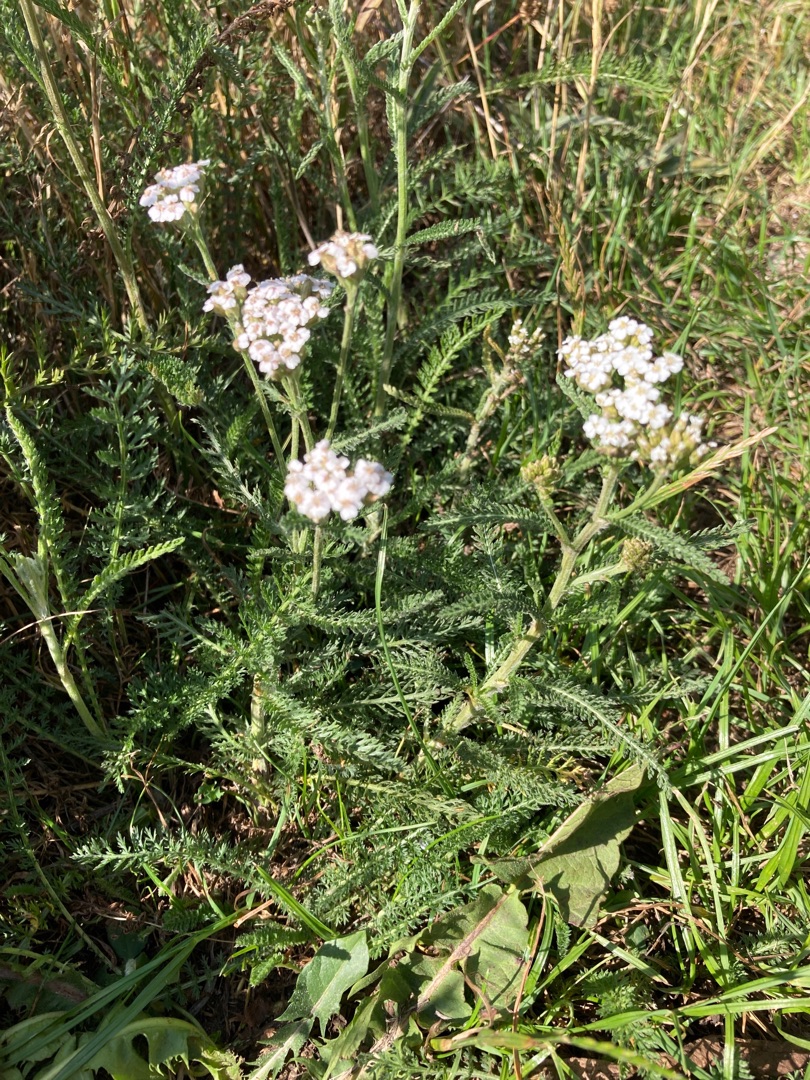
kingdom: Plantae
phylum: Tracheophyta
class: Magnoliopsida
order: Asterales
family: Asteraceae
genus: Achillea
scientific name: Achillea millefolium
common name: Almindelig røllike
